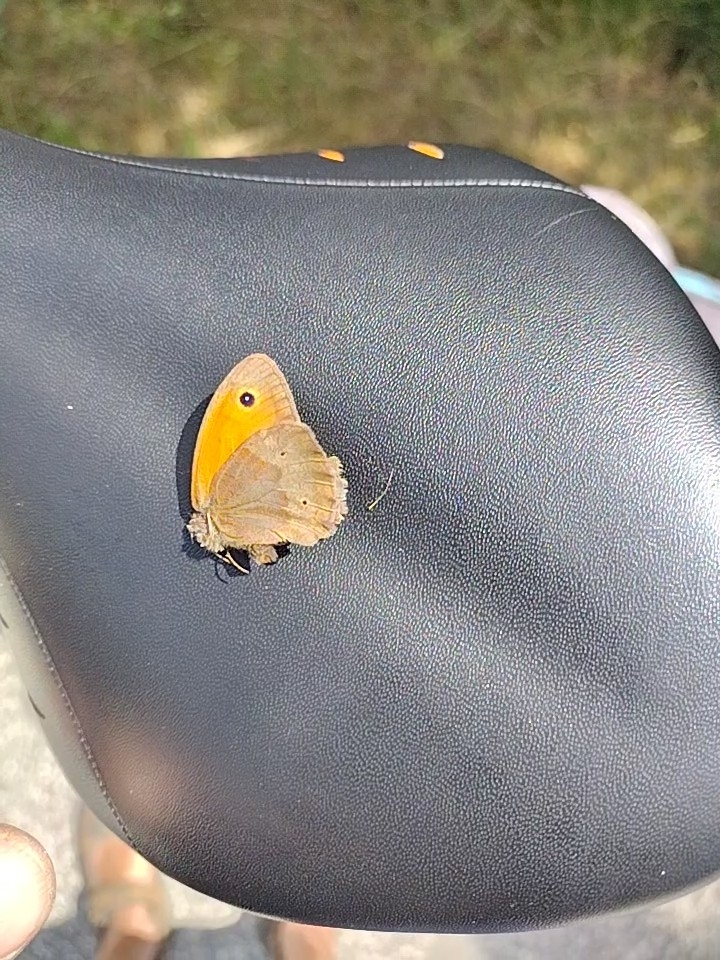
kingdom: Animalia
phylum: Arthropoda
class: Insecta
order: Lepidoptera
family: Nymphalidae
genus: Maniola
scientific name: Maniola jurtina
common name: Græsrandøje
